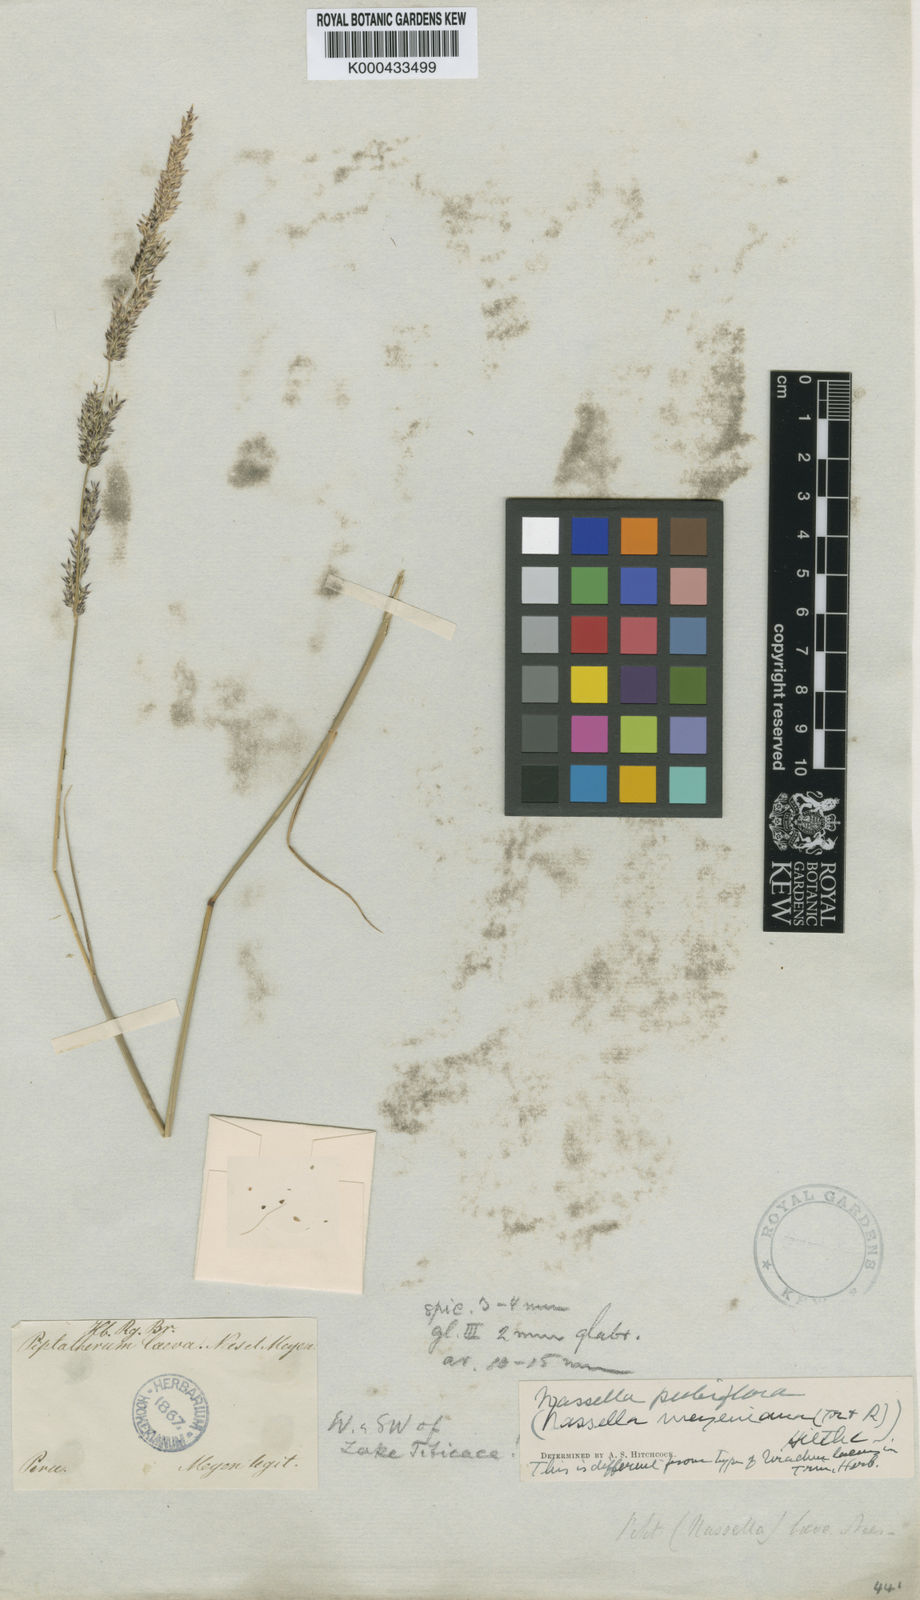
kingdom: Plantae
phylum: Tracheophyta
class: Liliopsida
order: Poales
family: Poaceae
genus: Nassella
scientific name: Nassella
